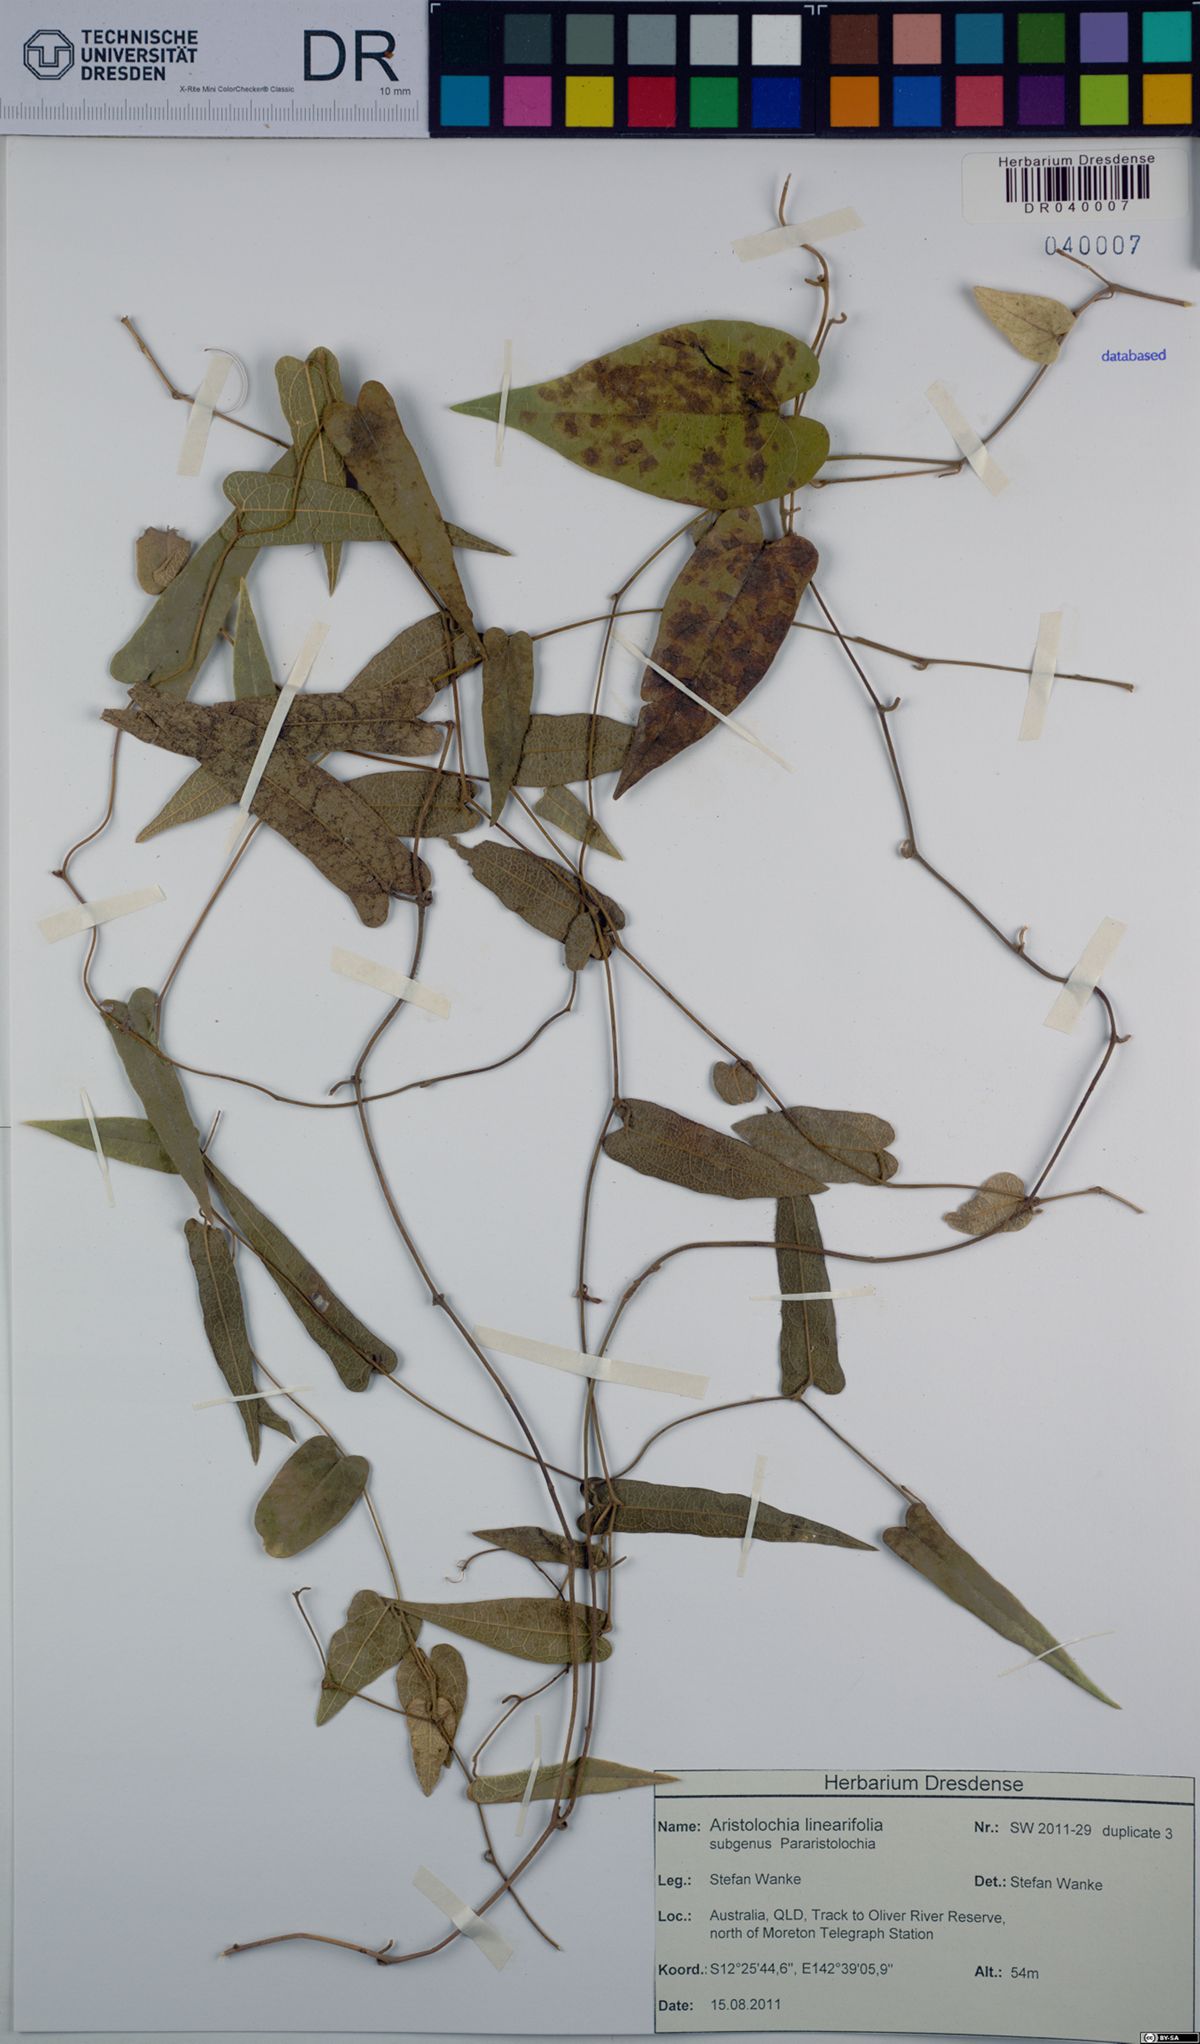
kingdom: Plantae
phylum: Tracheophyta
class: Magnoliopsida
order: Piperales
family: Aristolochiaceae
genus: Aristolochia
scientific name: Aristolochia linearifolia
